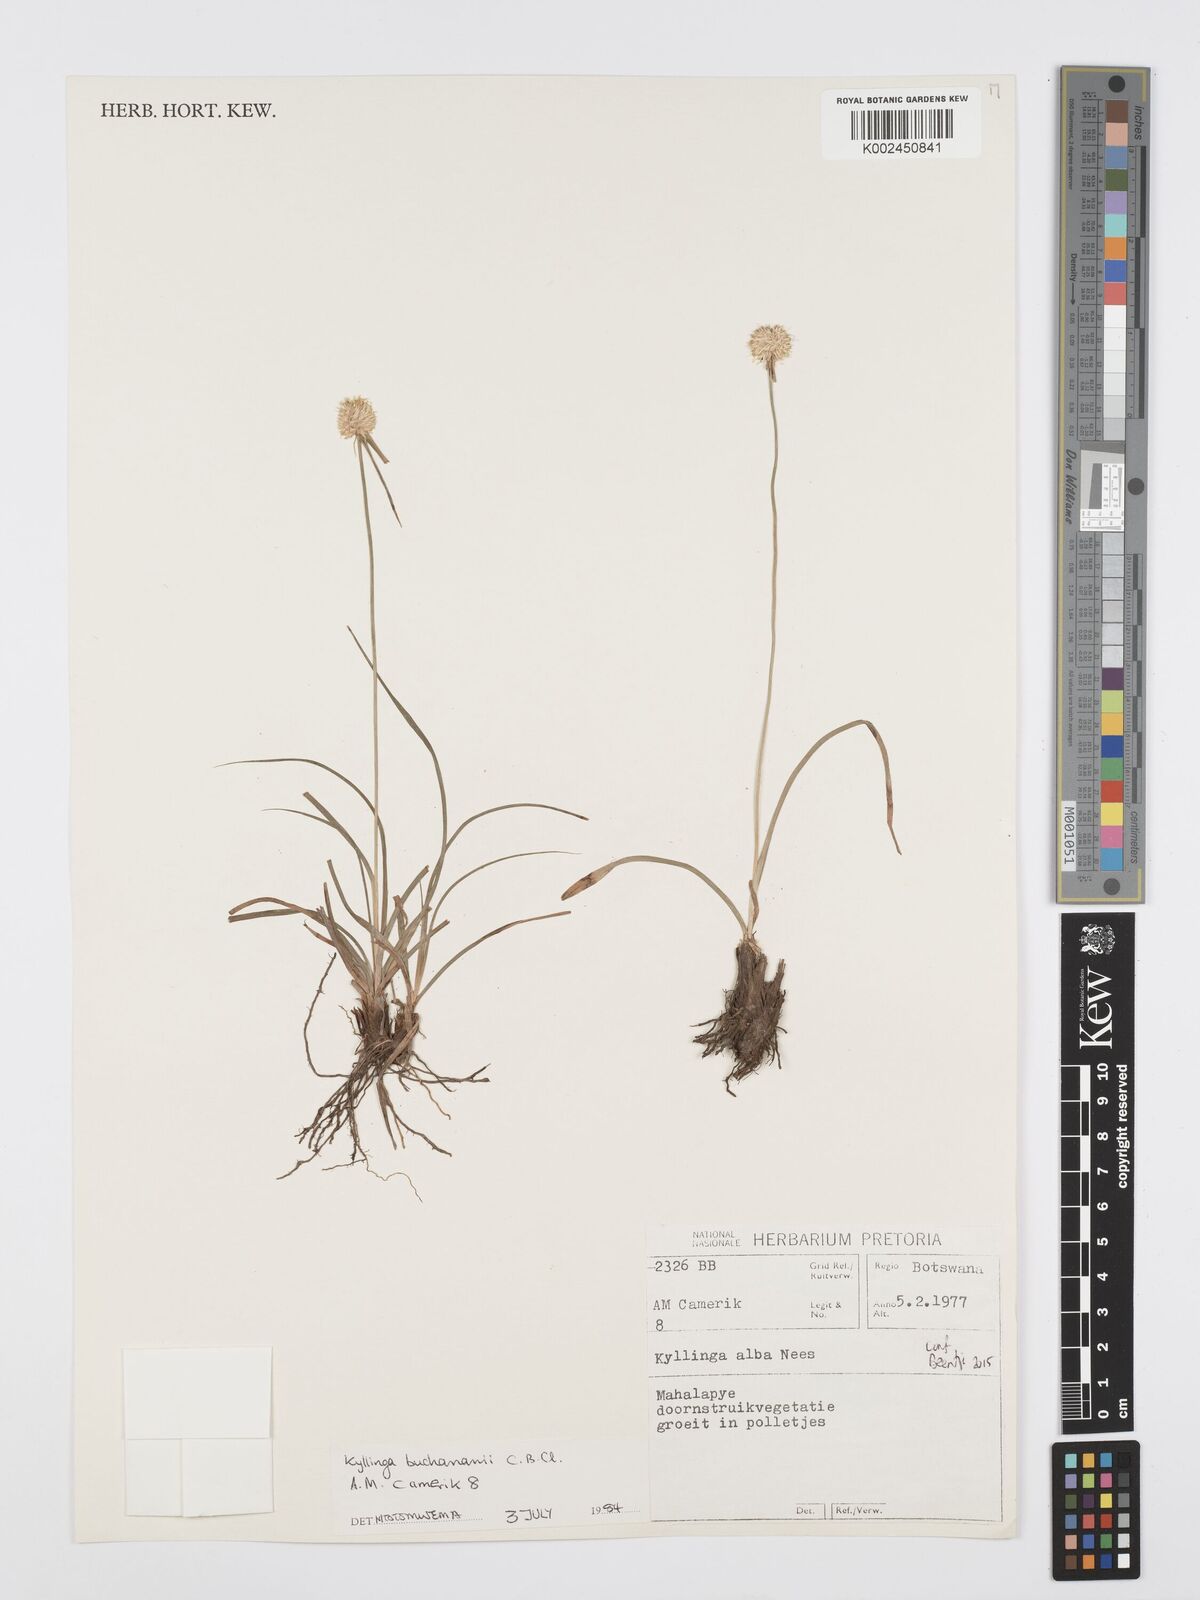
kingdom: Plantae
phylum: Tracheophyta
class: Liliopsida
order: Poales
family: Cyperaceae
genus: Cyperus
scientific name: Cyperus
